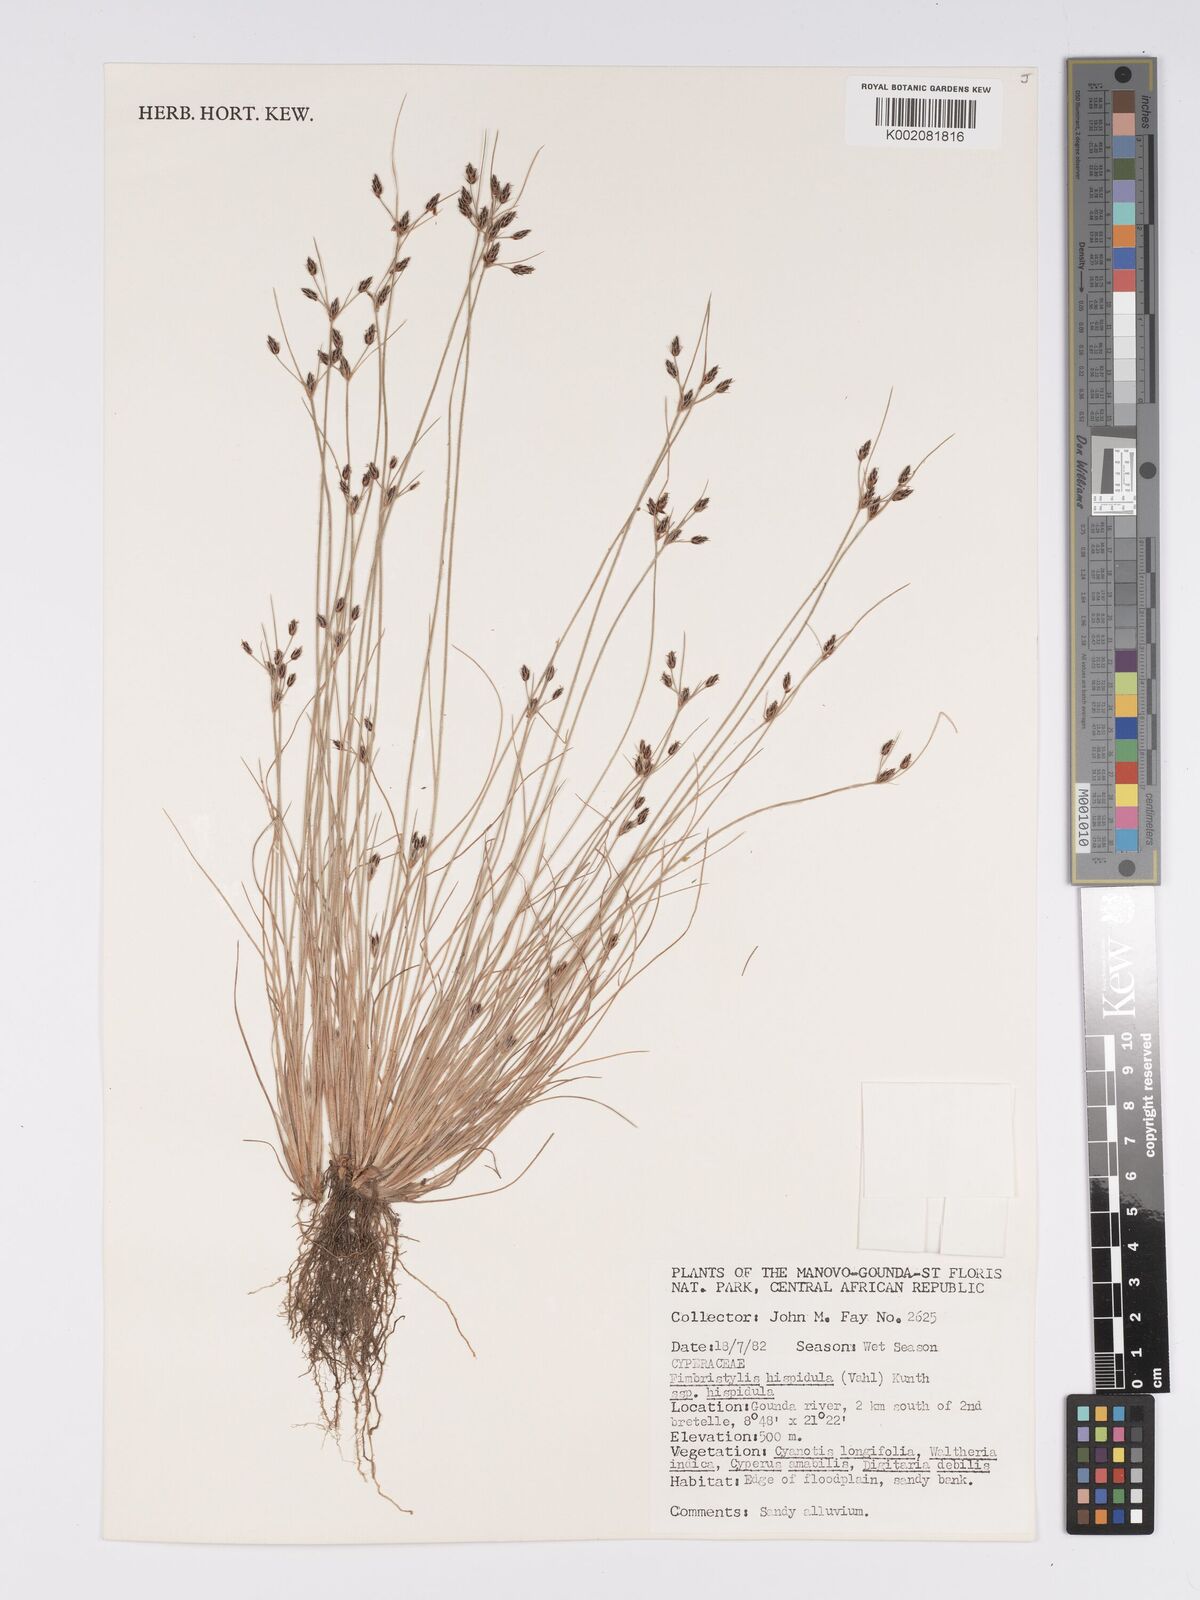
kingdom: Plantae
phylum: Tracheophyta
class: Liliopsida
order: Poales
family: Cyperaceae
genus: Bulbostylis
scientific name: Bulbostylis hispidula
